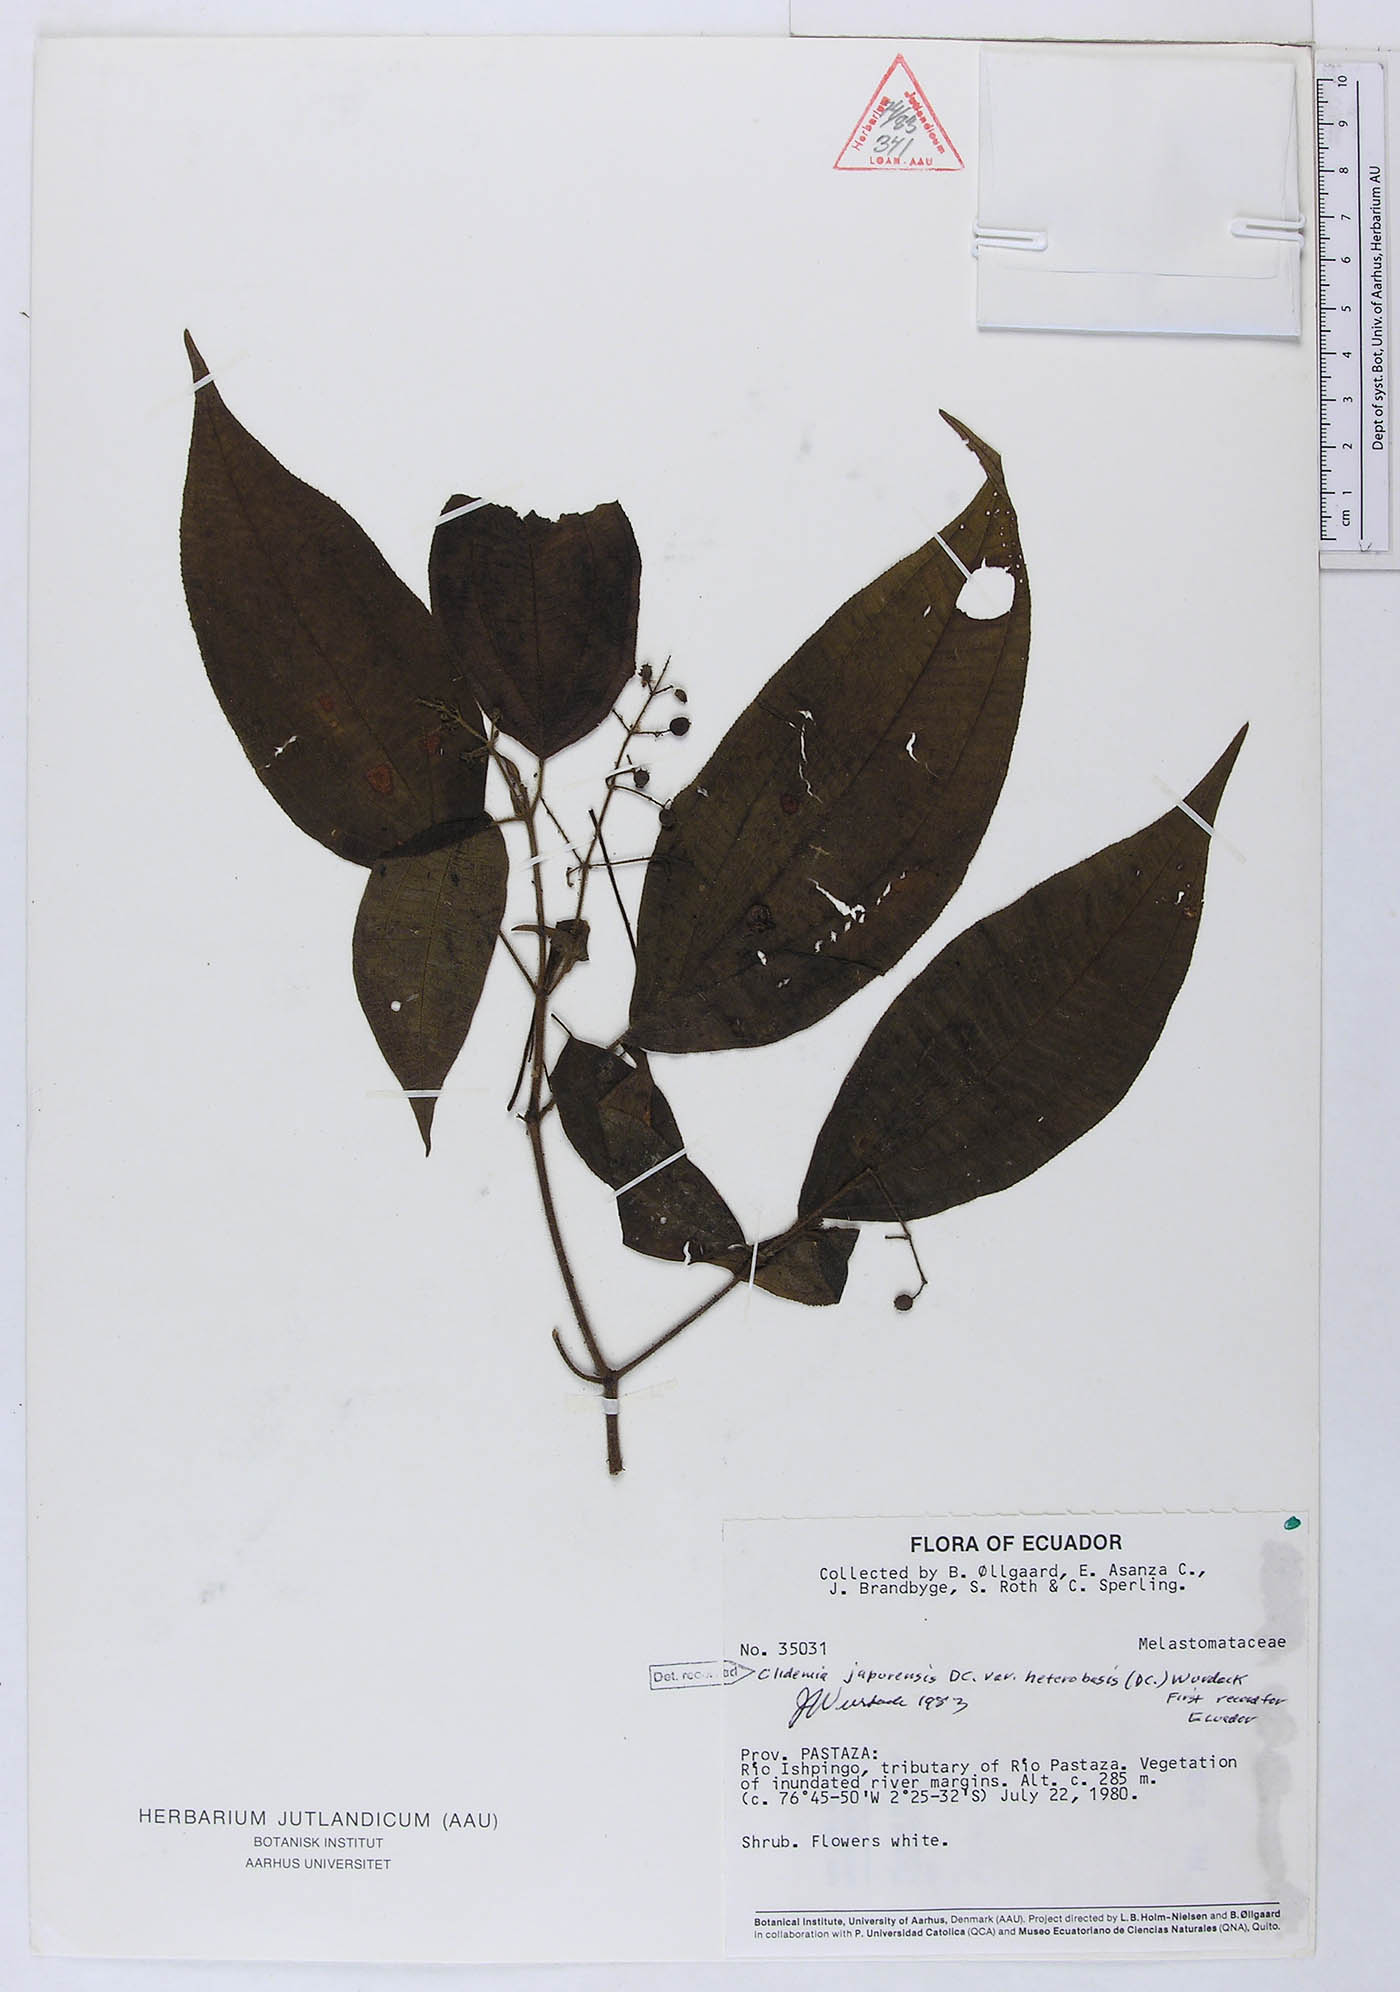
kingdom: Plantae
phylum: Tracheophyta
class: Magnoliopsida
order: Myrtales
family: Melastomataceae
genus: Miconia
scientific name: Miconia heteroclita
